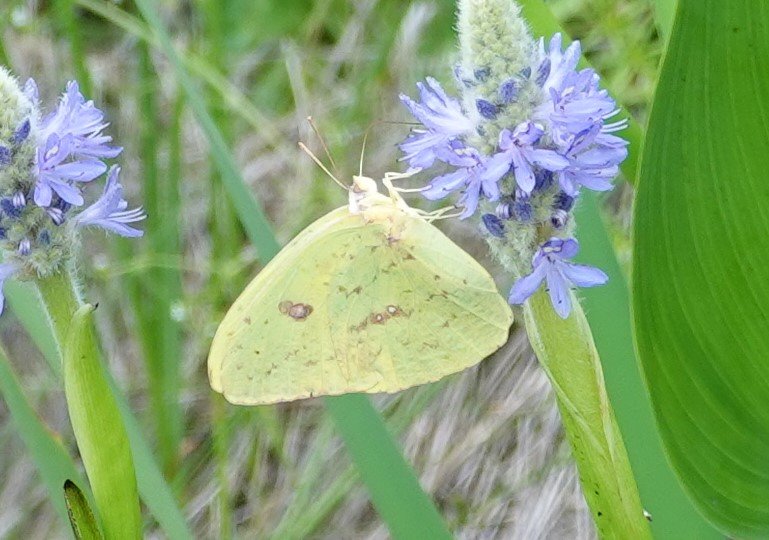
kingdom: Animalia
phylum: Arthropoda
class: Insecta
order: Lepidoptera
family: Pieridae
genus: Phoebis
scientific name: Phoebis sennae
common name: Cloudless Sulphur
